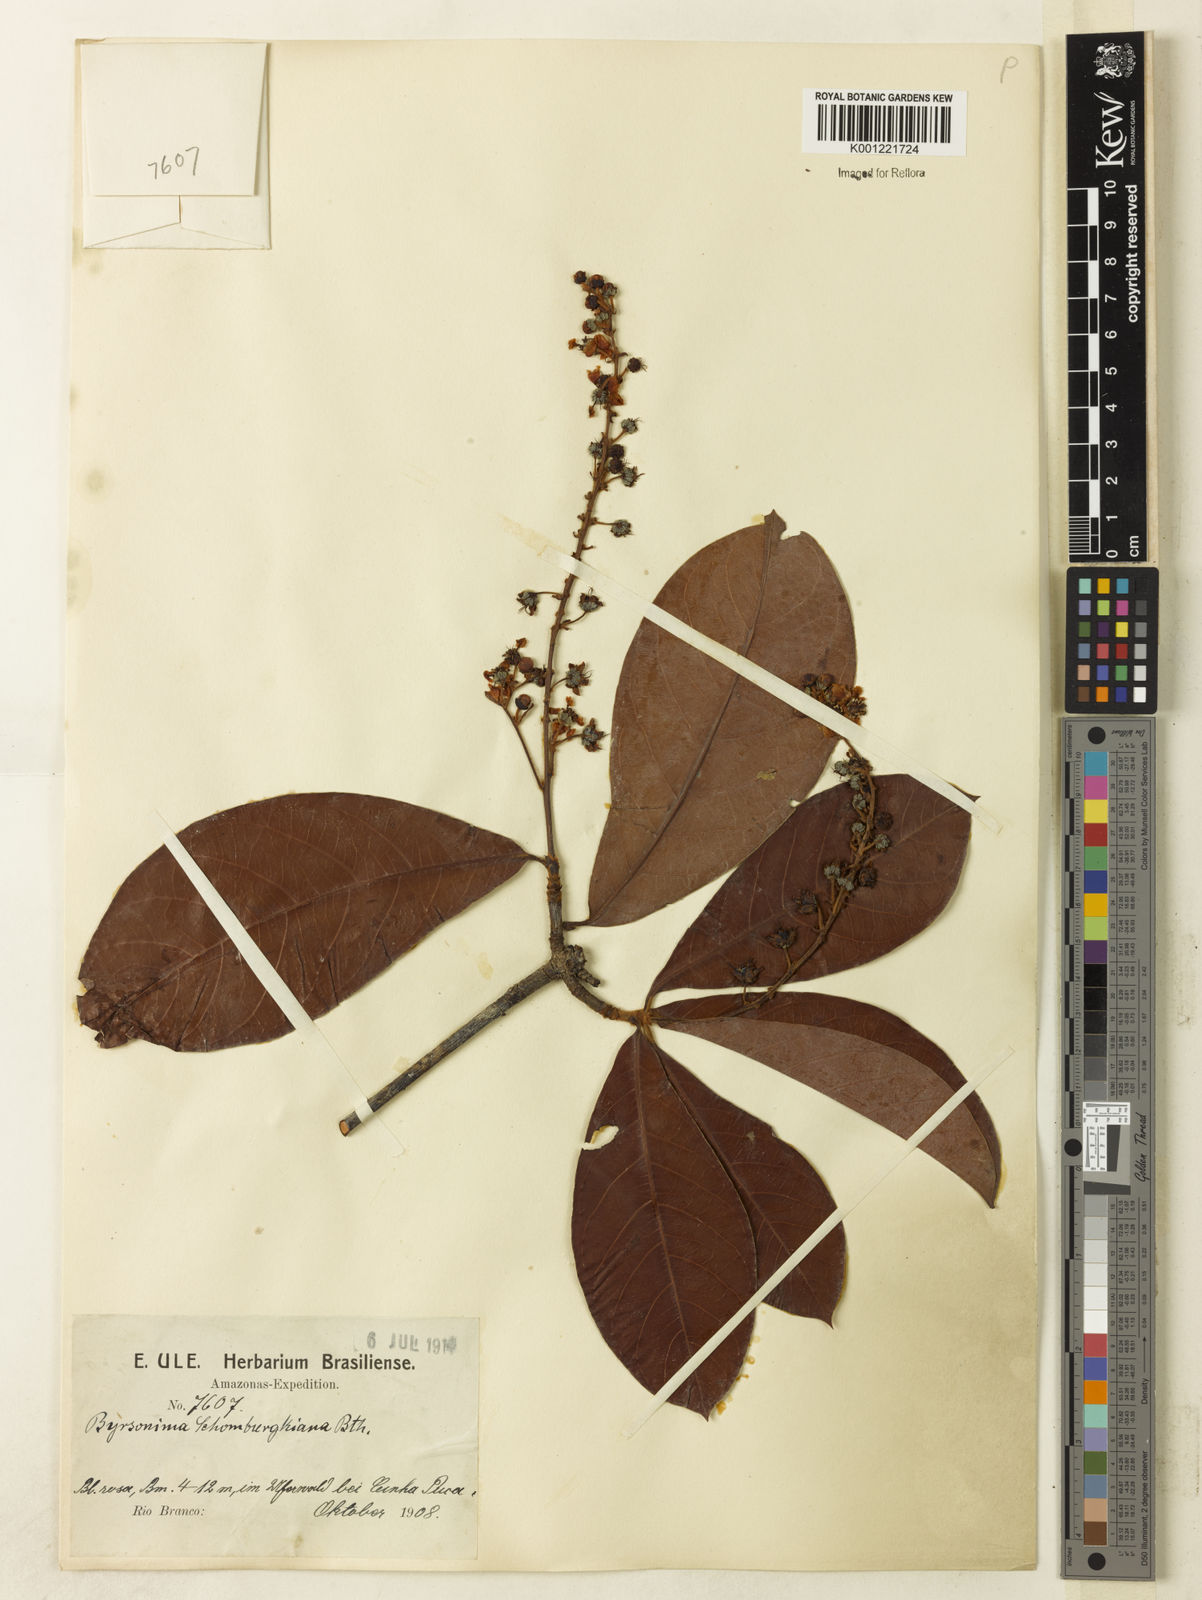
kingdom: Plantae
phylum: Tracheophyta
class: Magnoliopsida
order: Malpighiales
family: Malpighiaceae
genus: Byrsonima
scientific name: Byrsonima schomburgkiana
